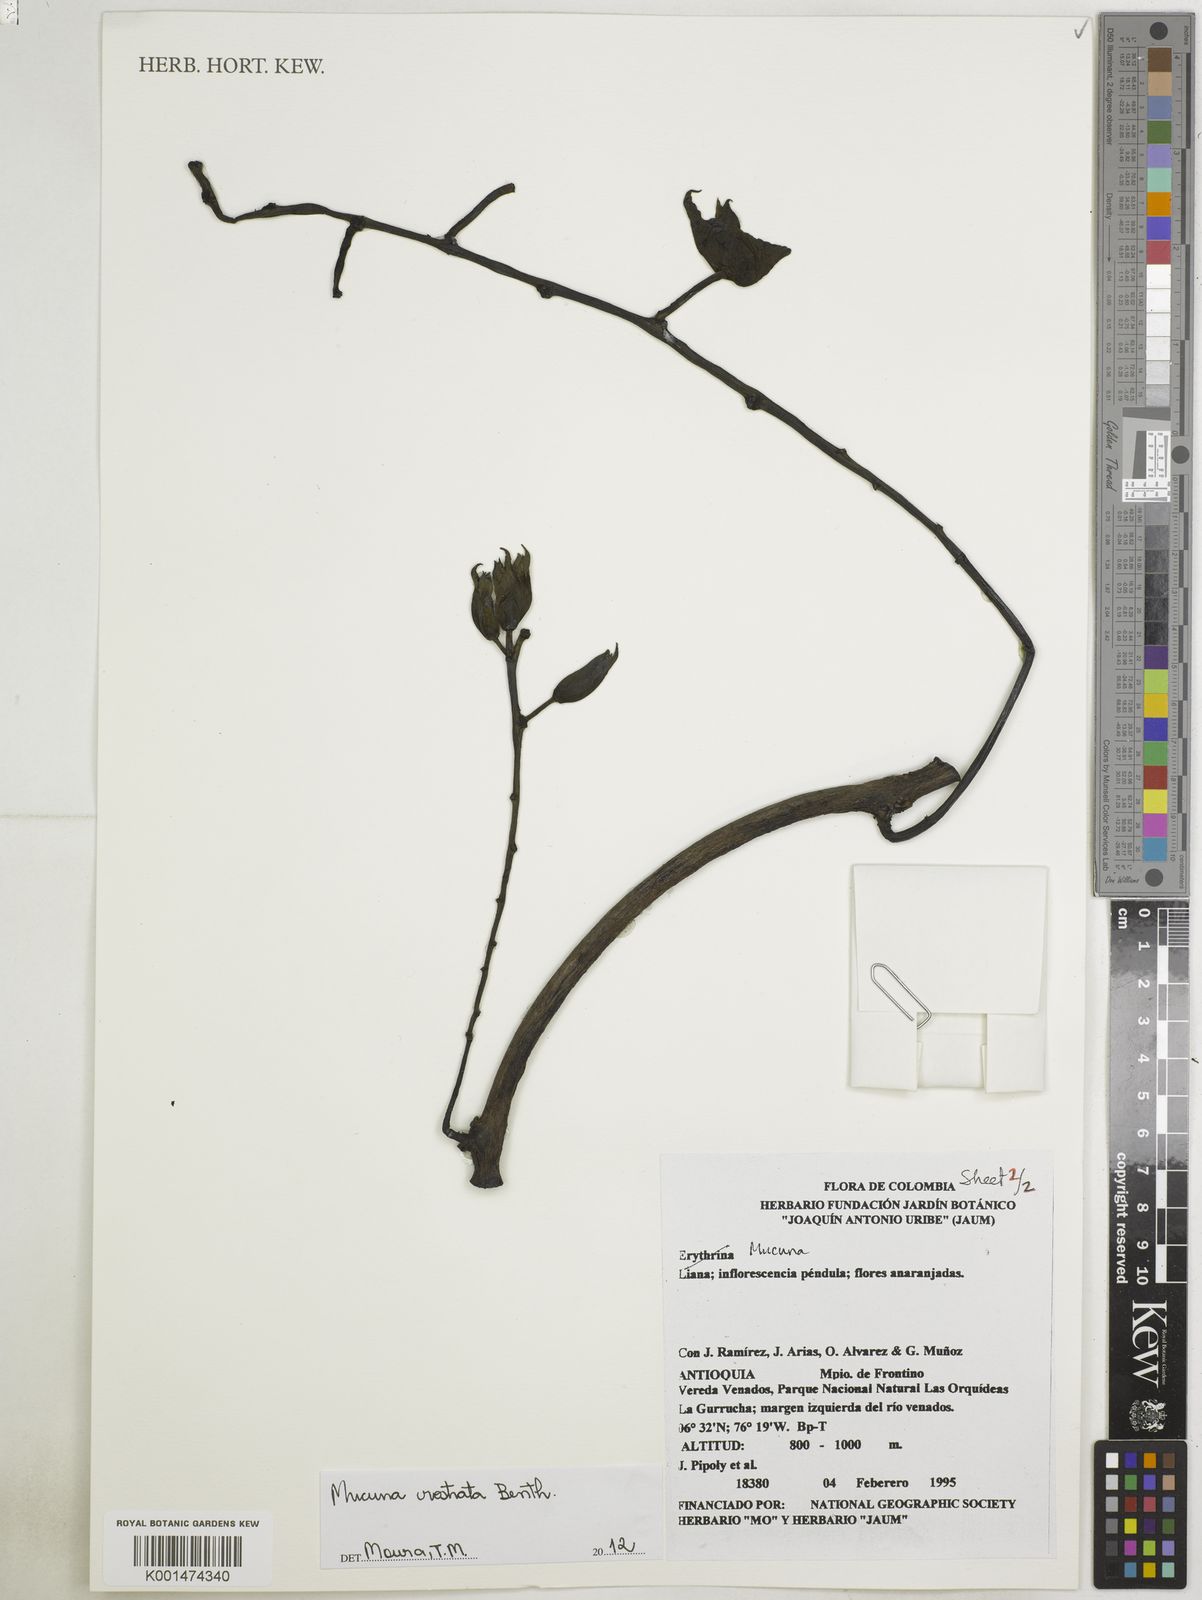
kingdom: Plantae
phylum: Tracheophyta
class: Magnoliopsida
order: Fabales
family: Fabaceae
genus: Mucuna
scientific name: Mucuna rostrata
